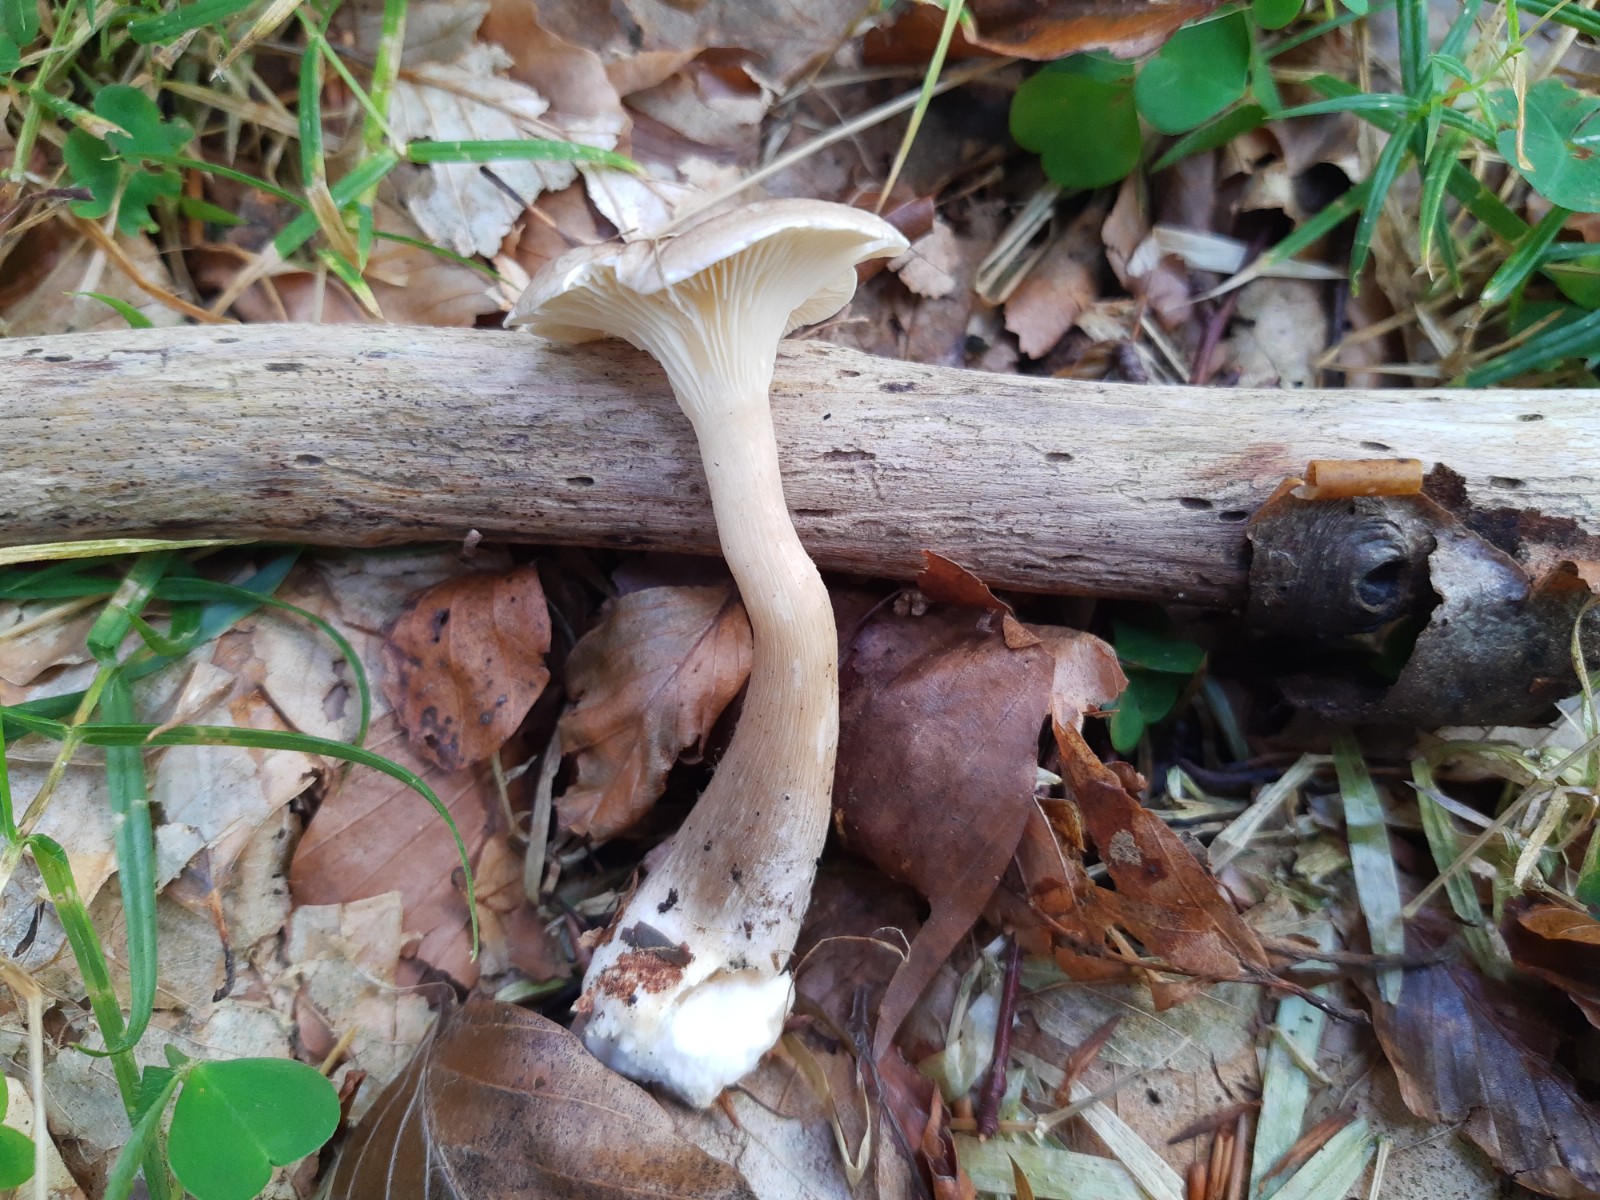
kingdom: Fungi
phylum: Basidiomycota
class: Agaricomycetes
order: Agaricales
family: Hygrophoraceae
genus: Ampulloclitocybe
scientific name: Ampulloclitocybe clavipes
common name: køllefod
